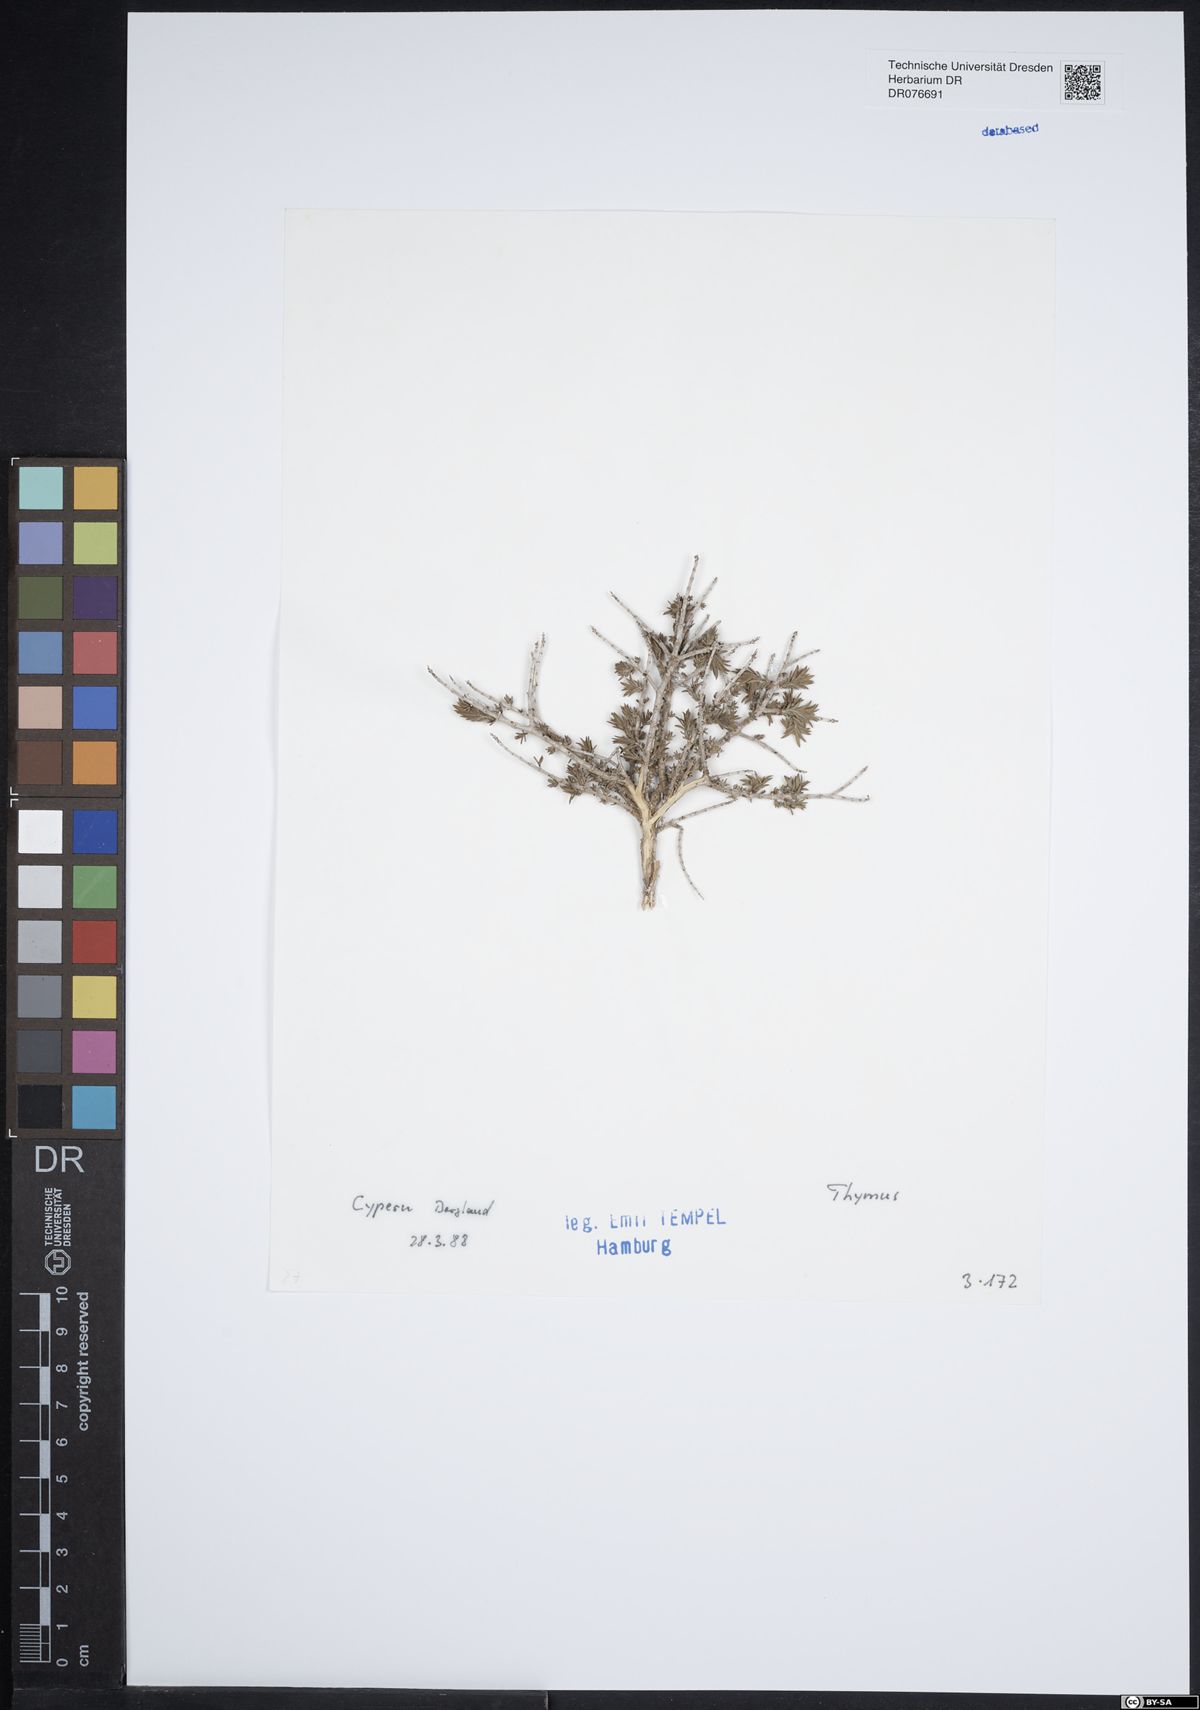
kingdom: Plantae
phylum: Tracheophyta
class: Magnoliopsida
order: Lamiales
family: Lamiaceae
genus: Thymus
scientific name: Thymus
